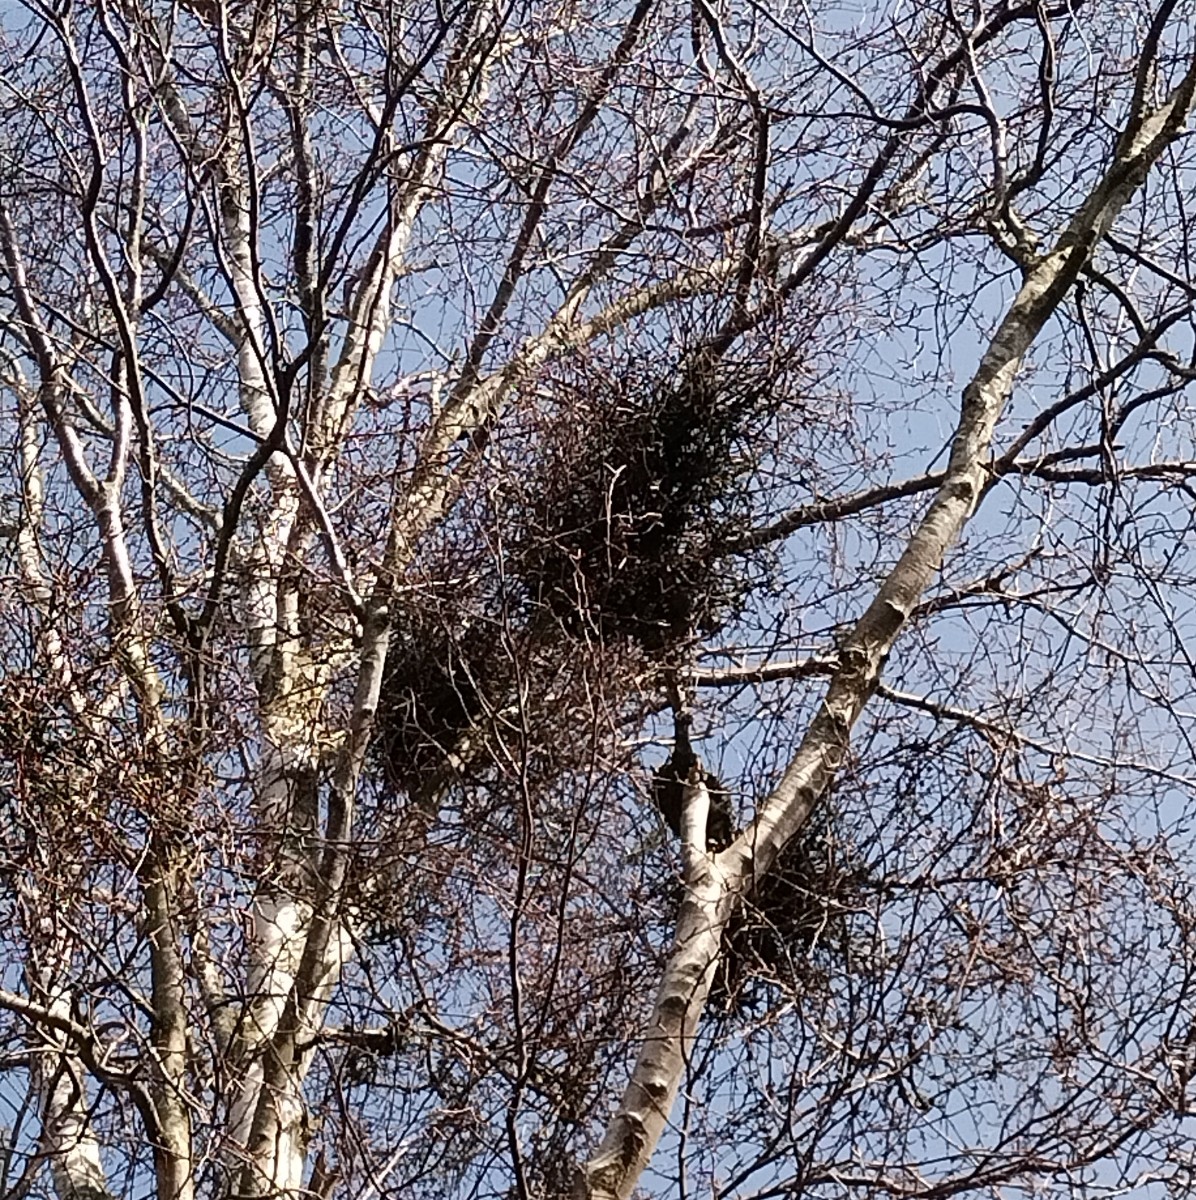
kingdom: Fungi
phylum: Ascomycota
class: Taphrinomycetes
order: Taphrinales
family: Taphrinaceae
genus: Taphrina
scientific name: Taphrina betulina
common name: hekse-sækdug
